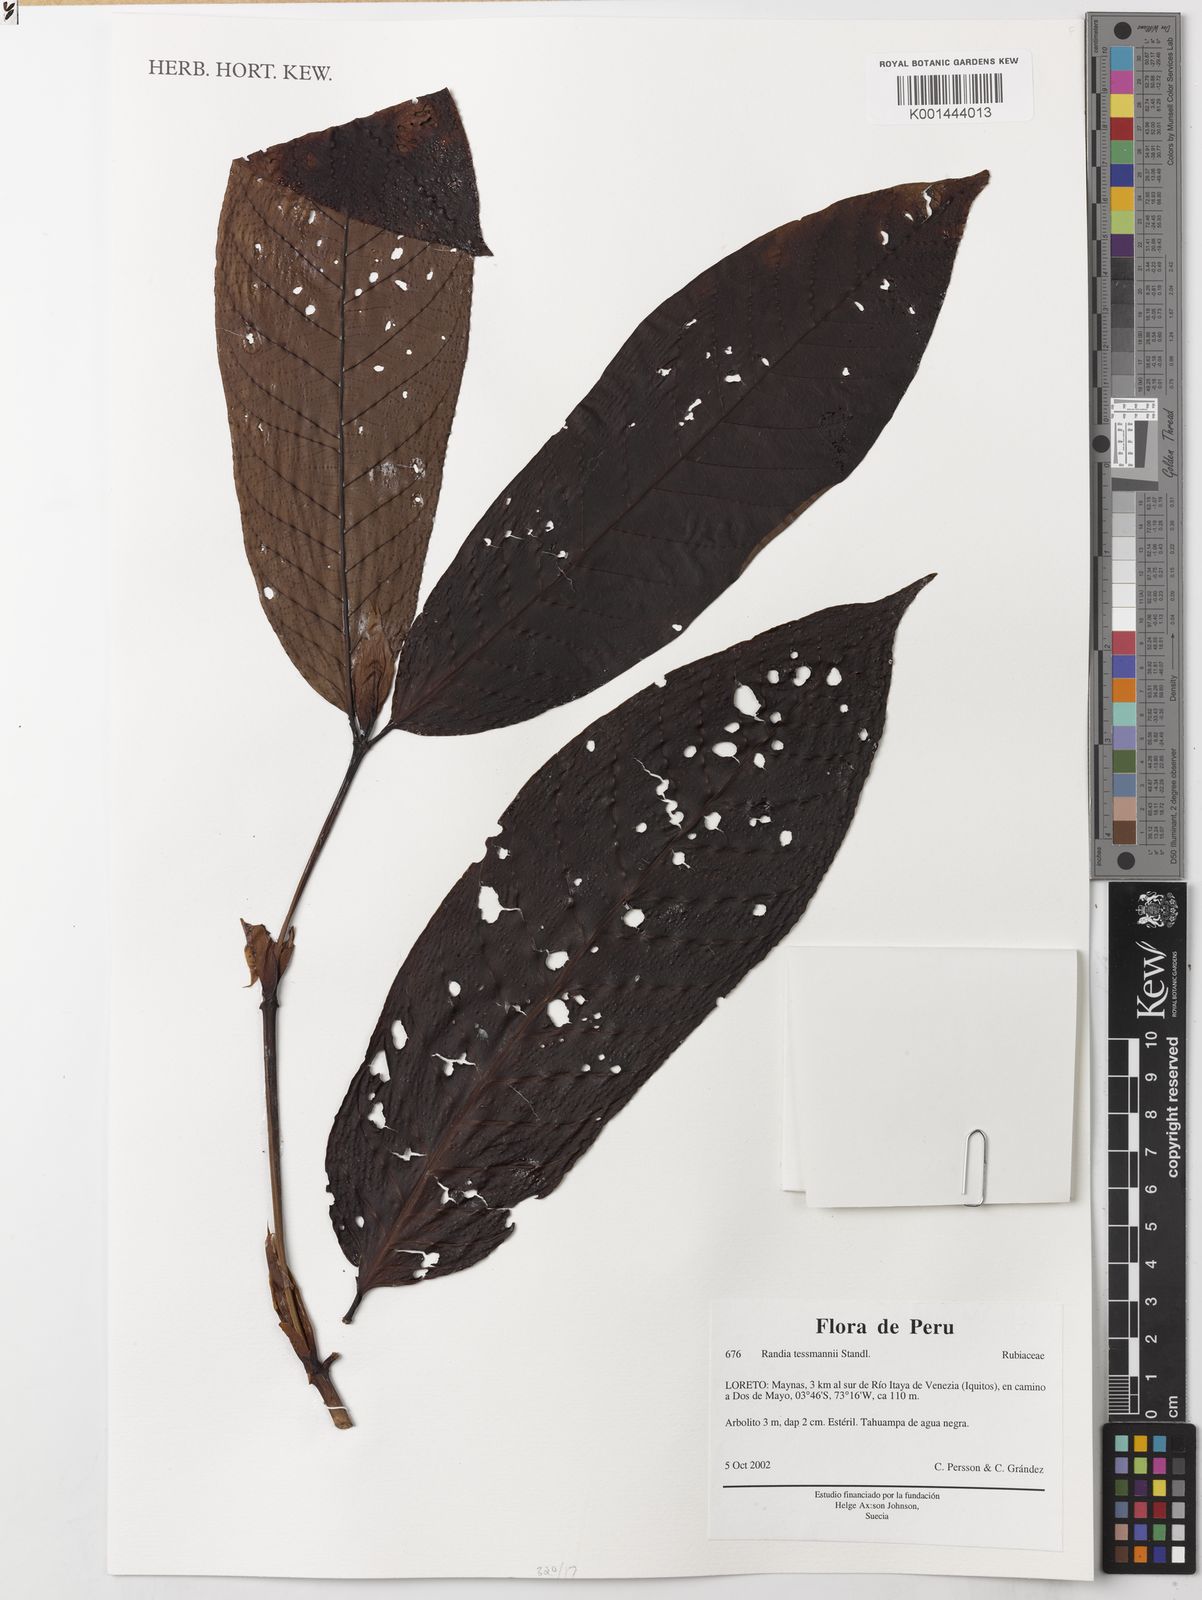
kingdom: Plantae
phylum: Tracheophyta
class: Magnoliopsida
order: Gentianales
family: Rubiaceae
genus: Alibertia
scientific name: Alibertia tessmannii
